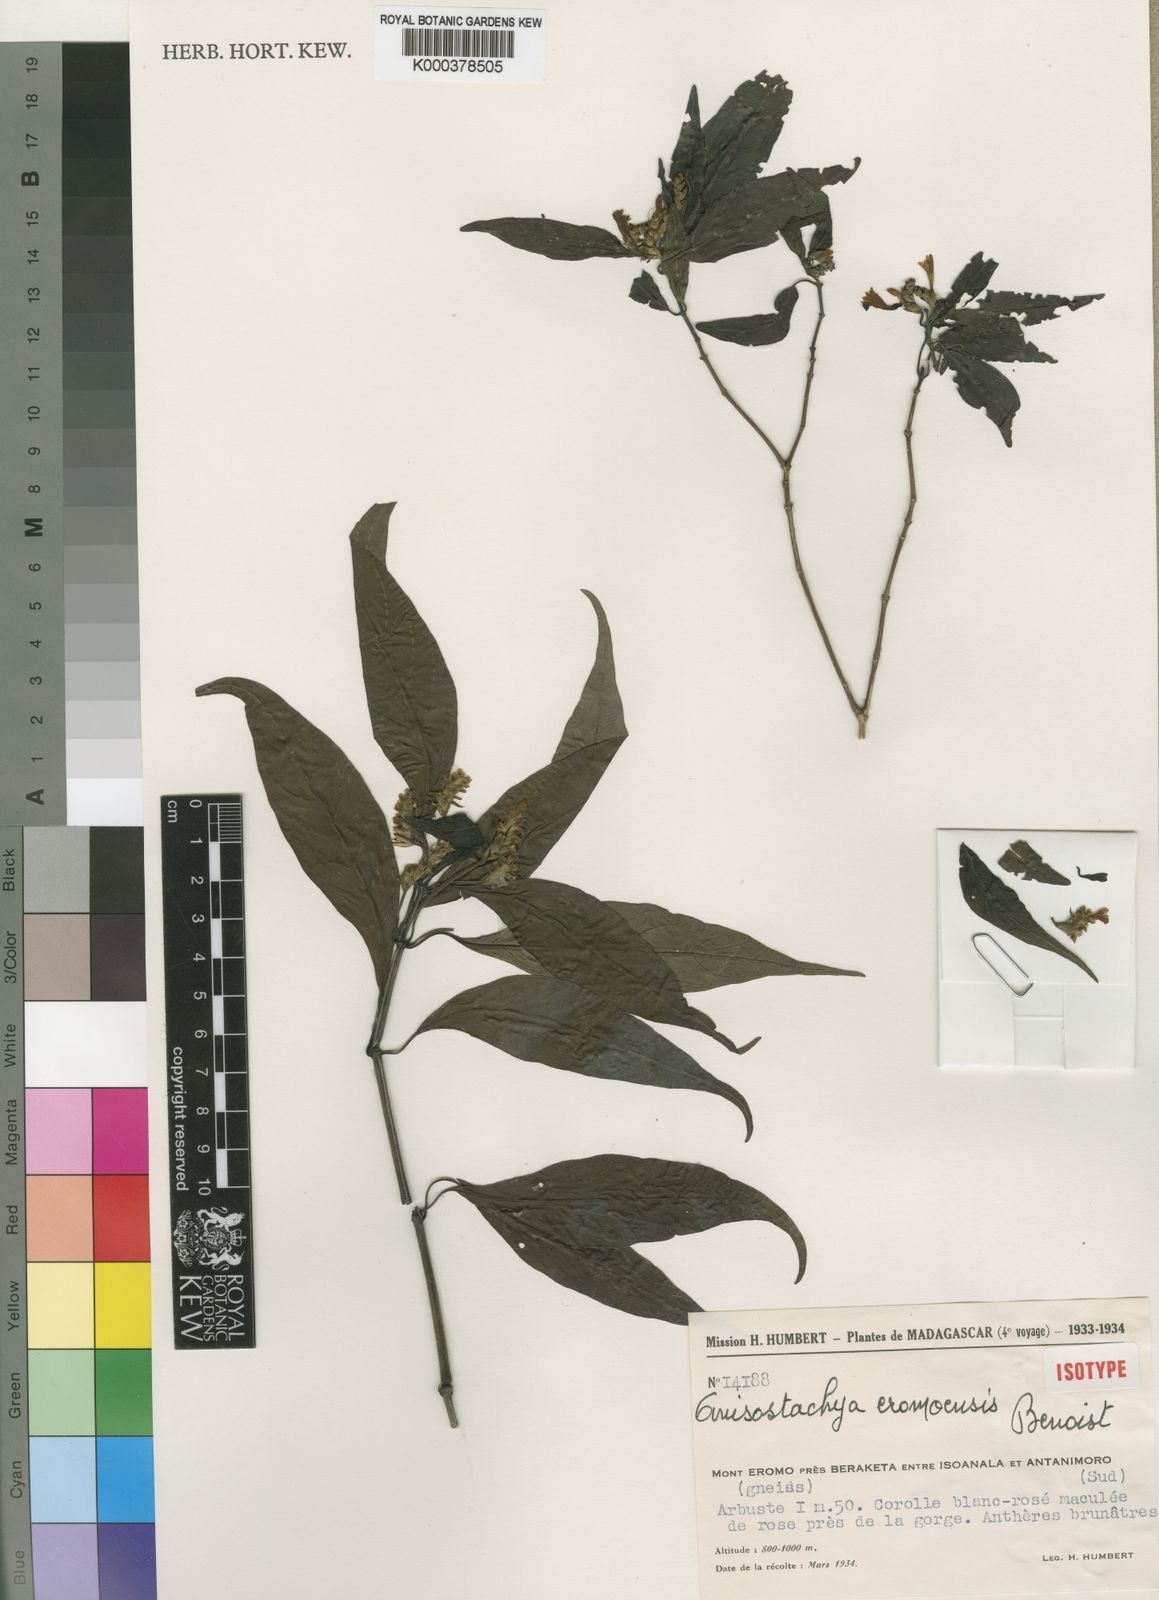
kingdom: Plantae
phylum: Tracheophyta
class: Magnoliopsida
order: Lamiales
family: Acanthaceae
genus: Justicia
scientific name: Justicia
